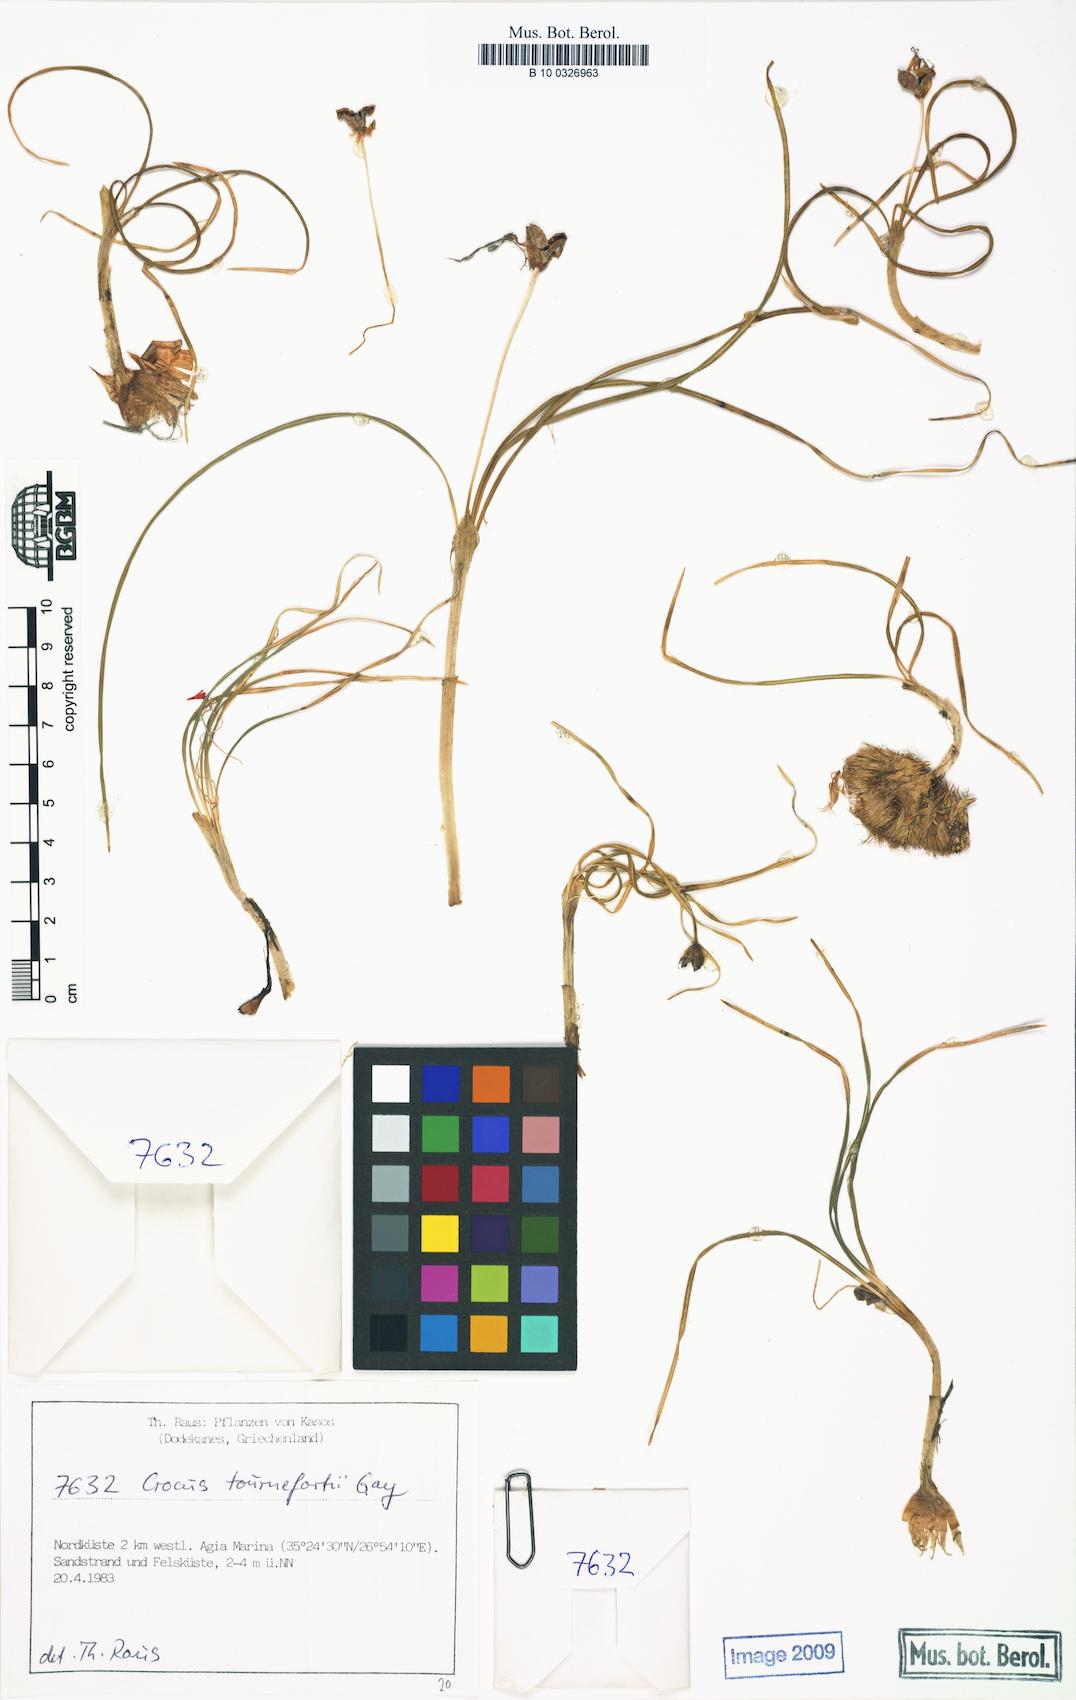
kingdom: Plantae
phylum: Tracheophyta
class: Liliopsida
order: Asparagales
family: Iridaceae
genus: Crocus
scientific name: Crocus tournefortii
